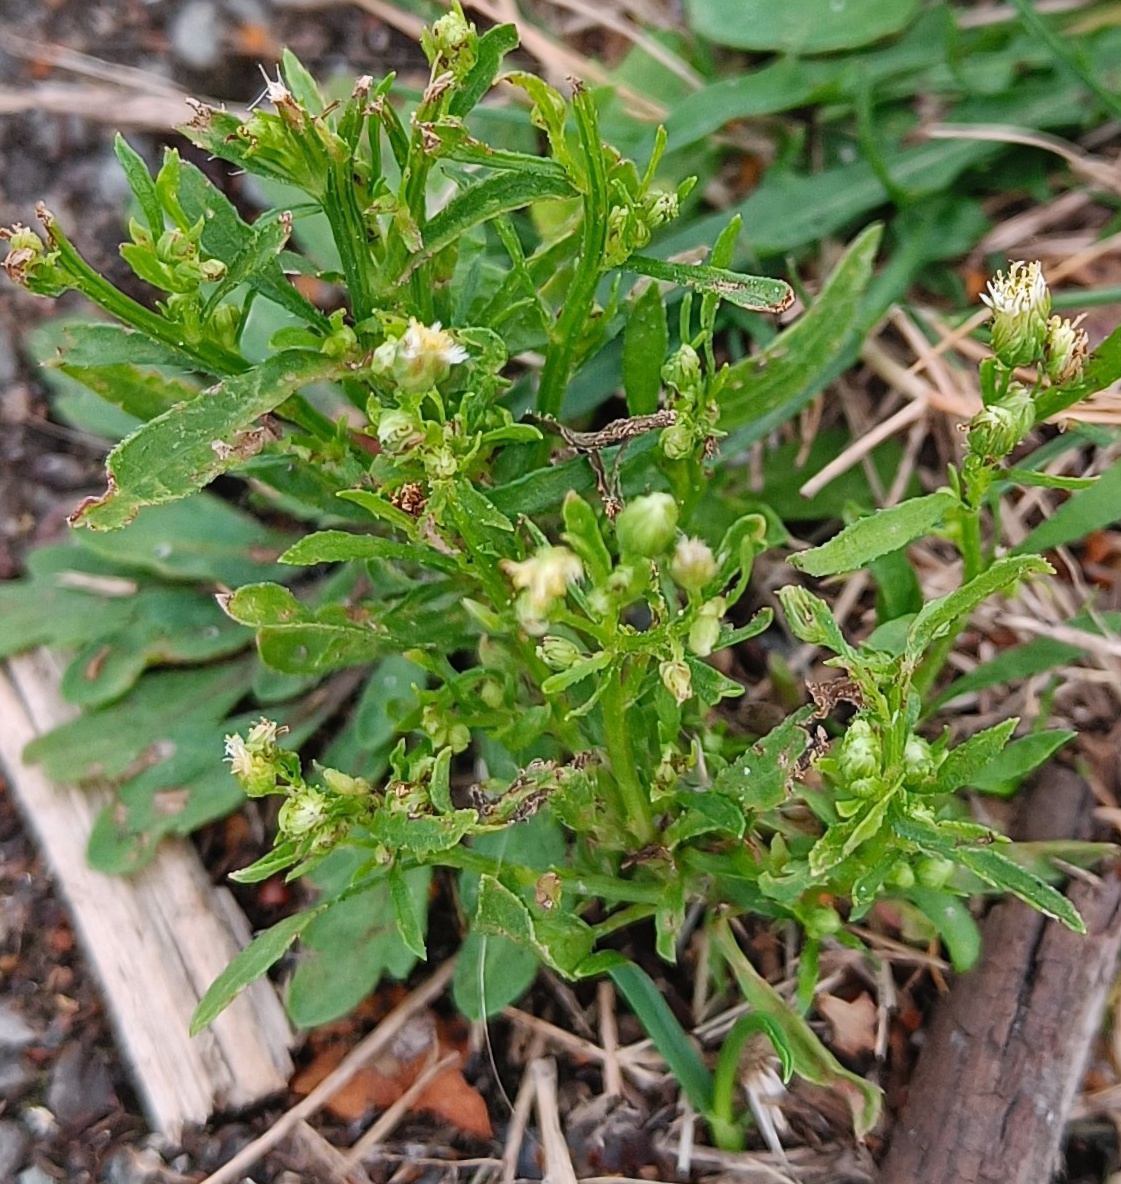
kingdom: Plantae
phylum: Tracheophyta
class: Magnoliopsida
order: Asterales
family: Asteraceae
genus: Erigeron
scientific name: Erigeron canadensis
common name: Kanadisk bakkestjerne
